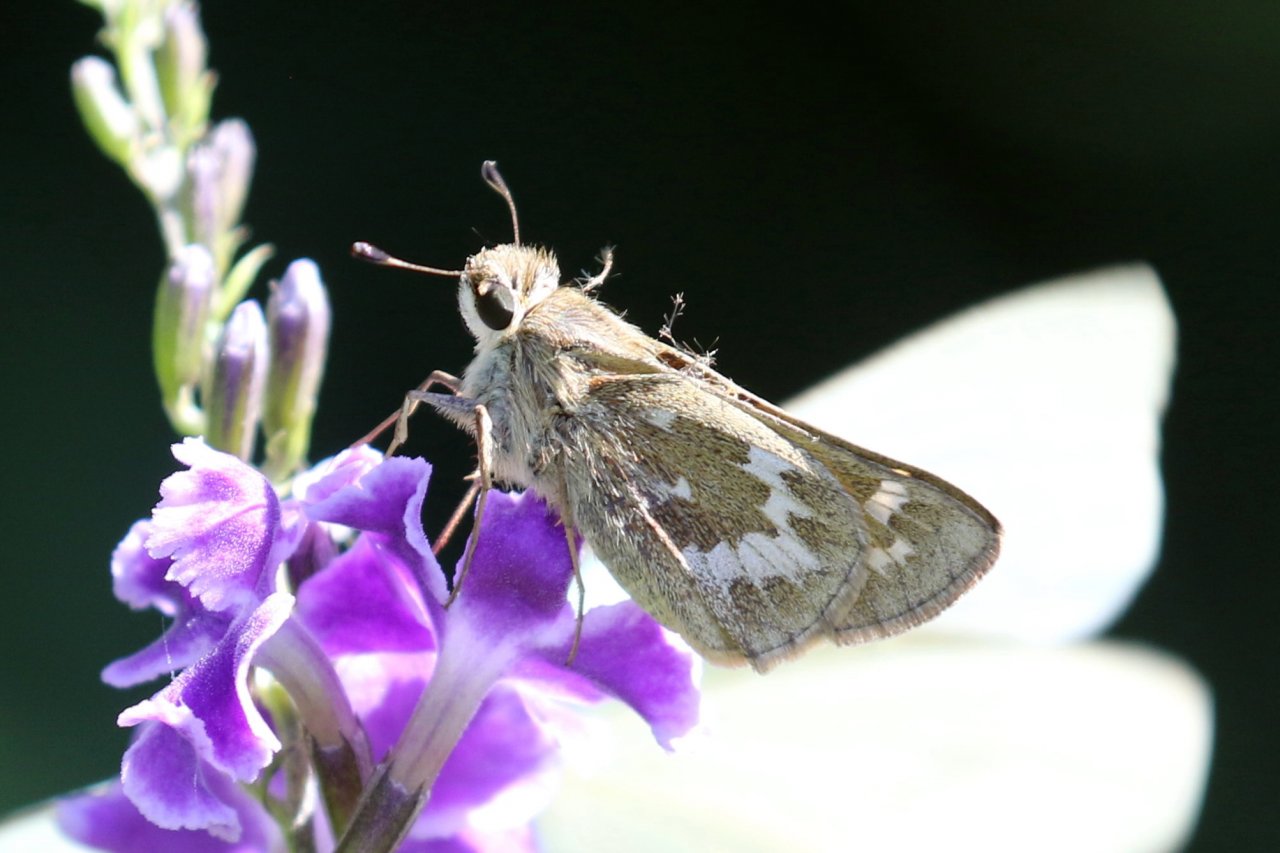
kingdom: Animalia
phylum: Arthropoda
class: Insecta
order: Lepidoptera
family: Hesperiidae
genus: Atalopedes
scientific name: Atalopedes campestris
